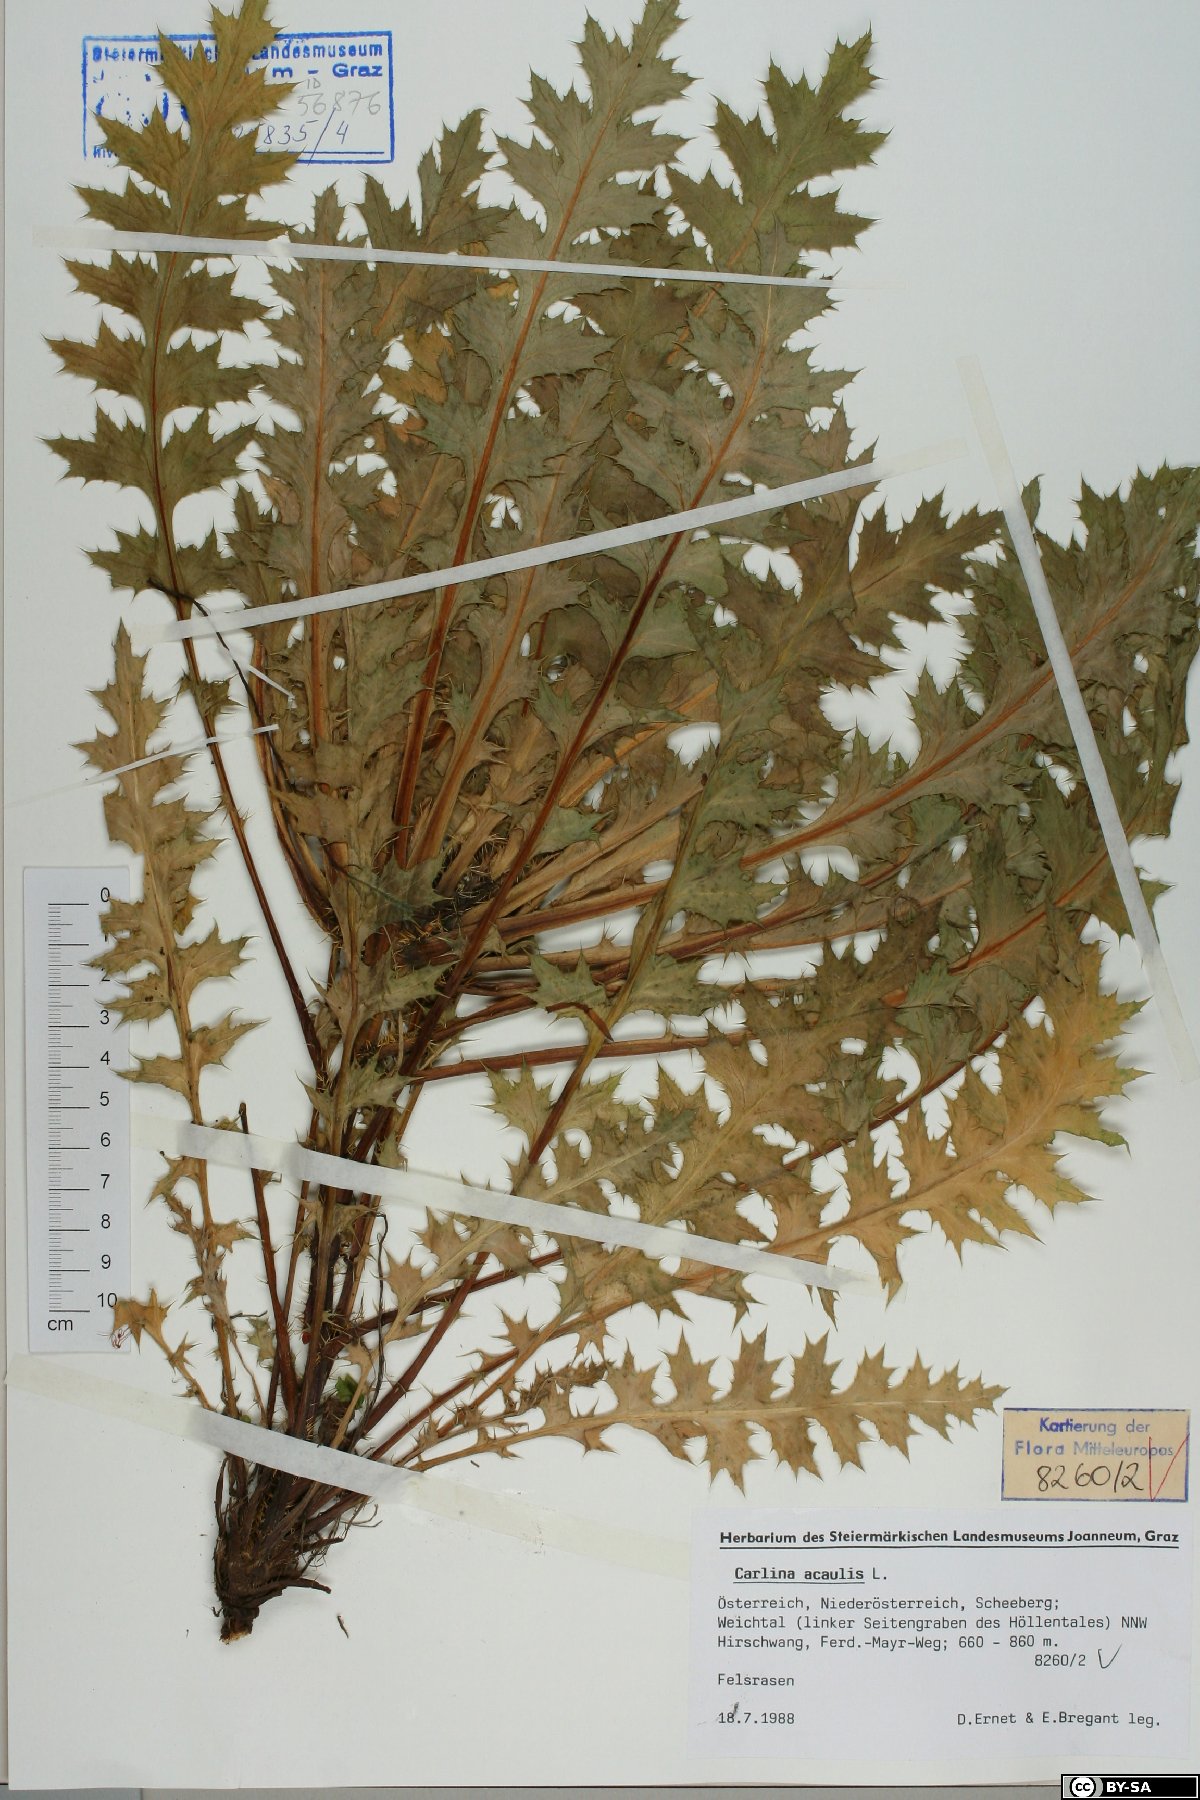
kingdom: Plantae
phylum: Tracheophyta
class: Magnoliopsida
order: Asterales
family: Asteraceae
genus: Carlina
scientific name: Carlina acaulis
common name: Stemless carline thistle
